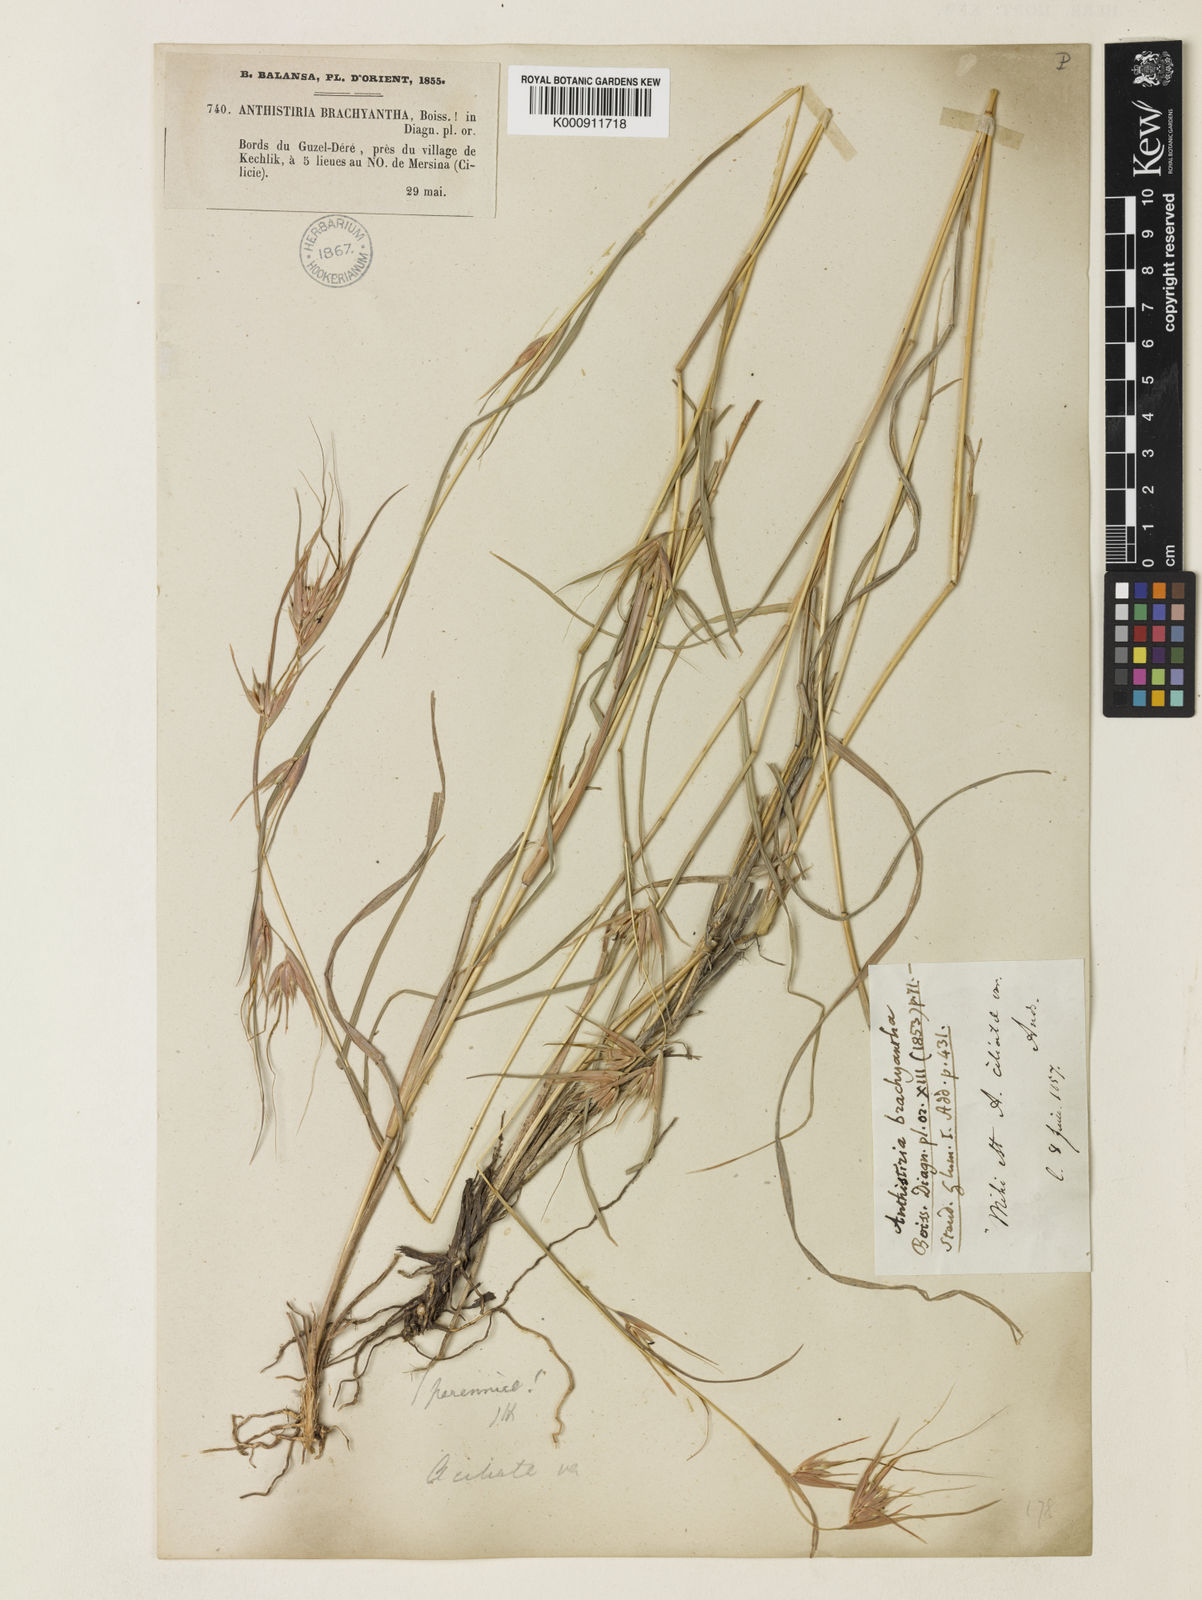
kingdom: Plantae
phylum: Tracheophyta
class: Liliopsida
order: Poales
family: Poaceae
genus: Themeda
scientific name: Themeda triandra
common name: Kangaroo grass
